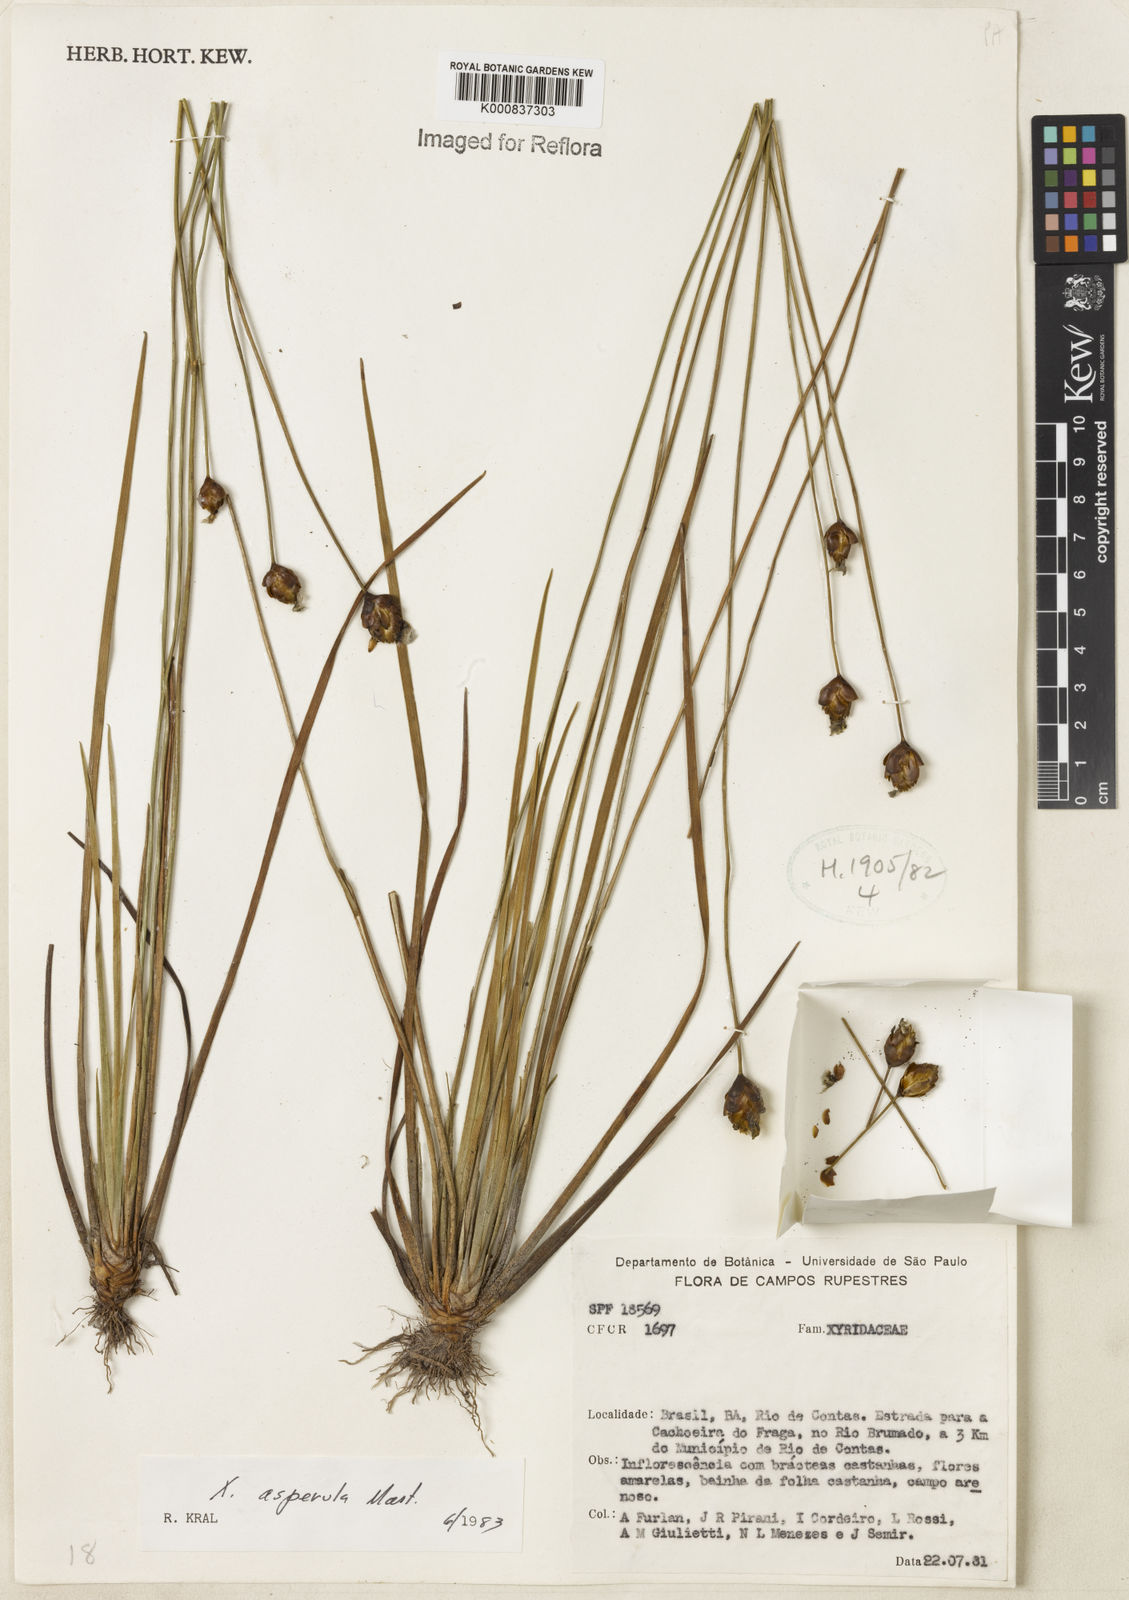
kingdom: Plantae
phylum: Tracheophyta
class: Liliopsida
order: Poales
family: Xyridaceae
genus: Xyris
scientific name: Xyris asperula
